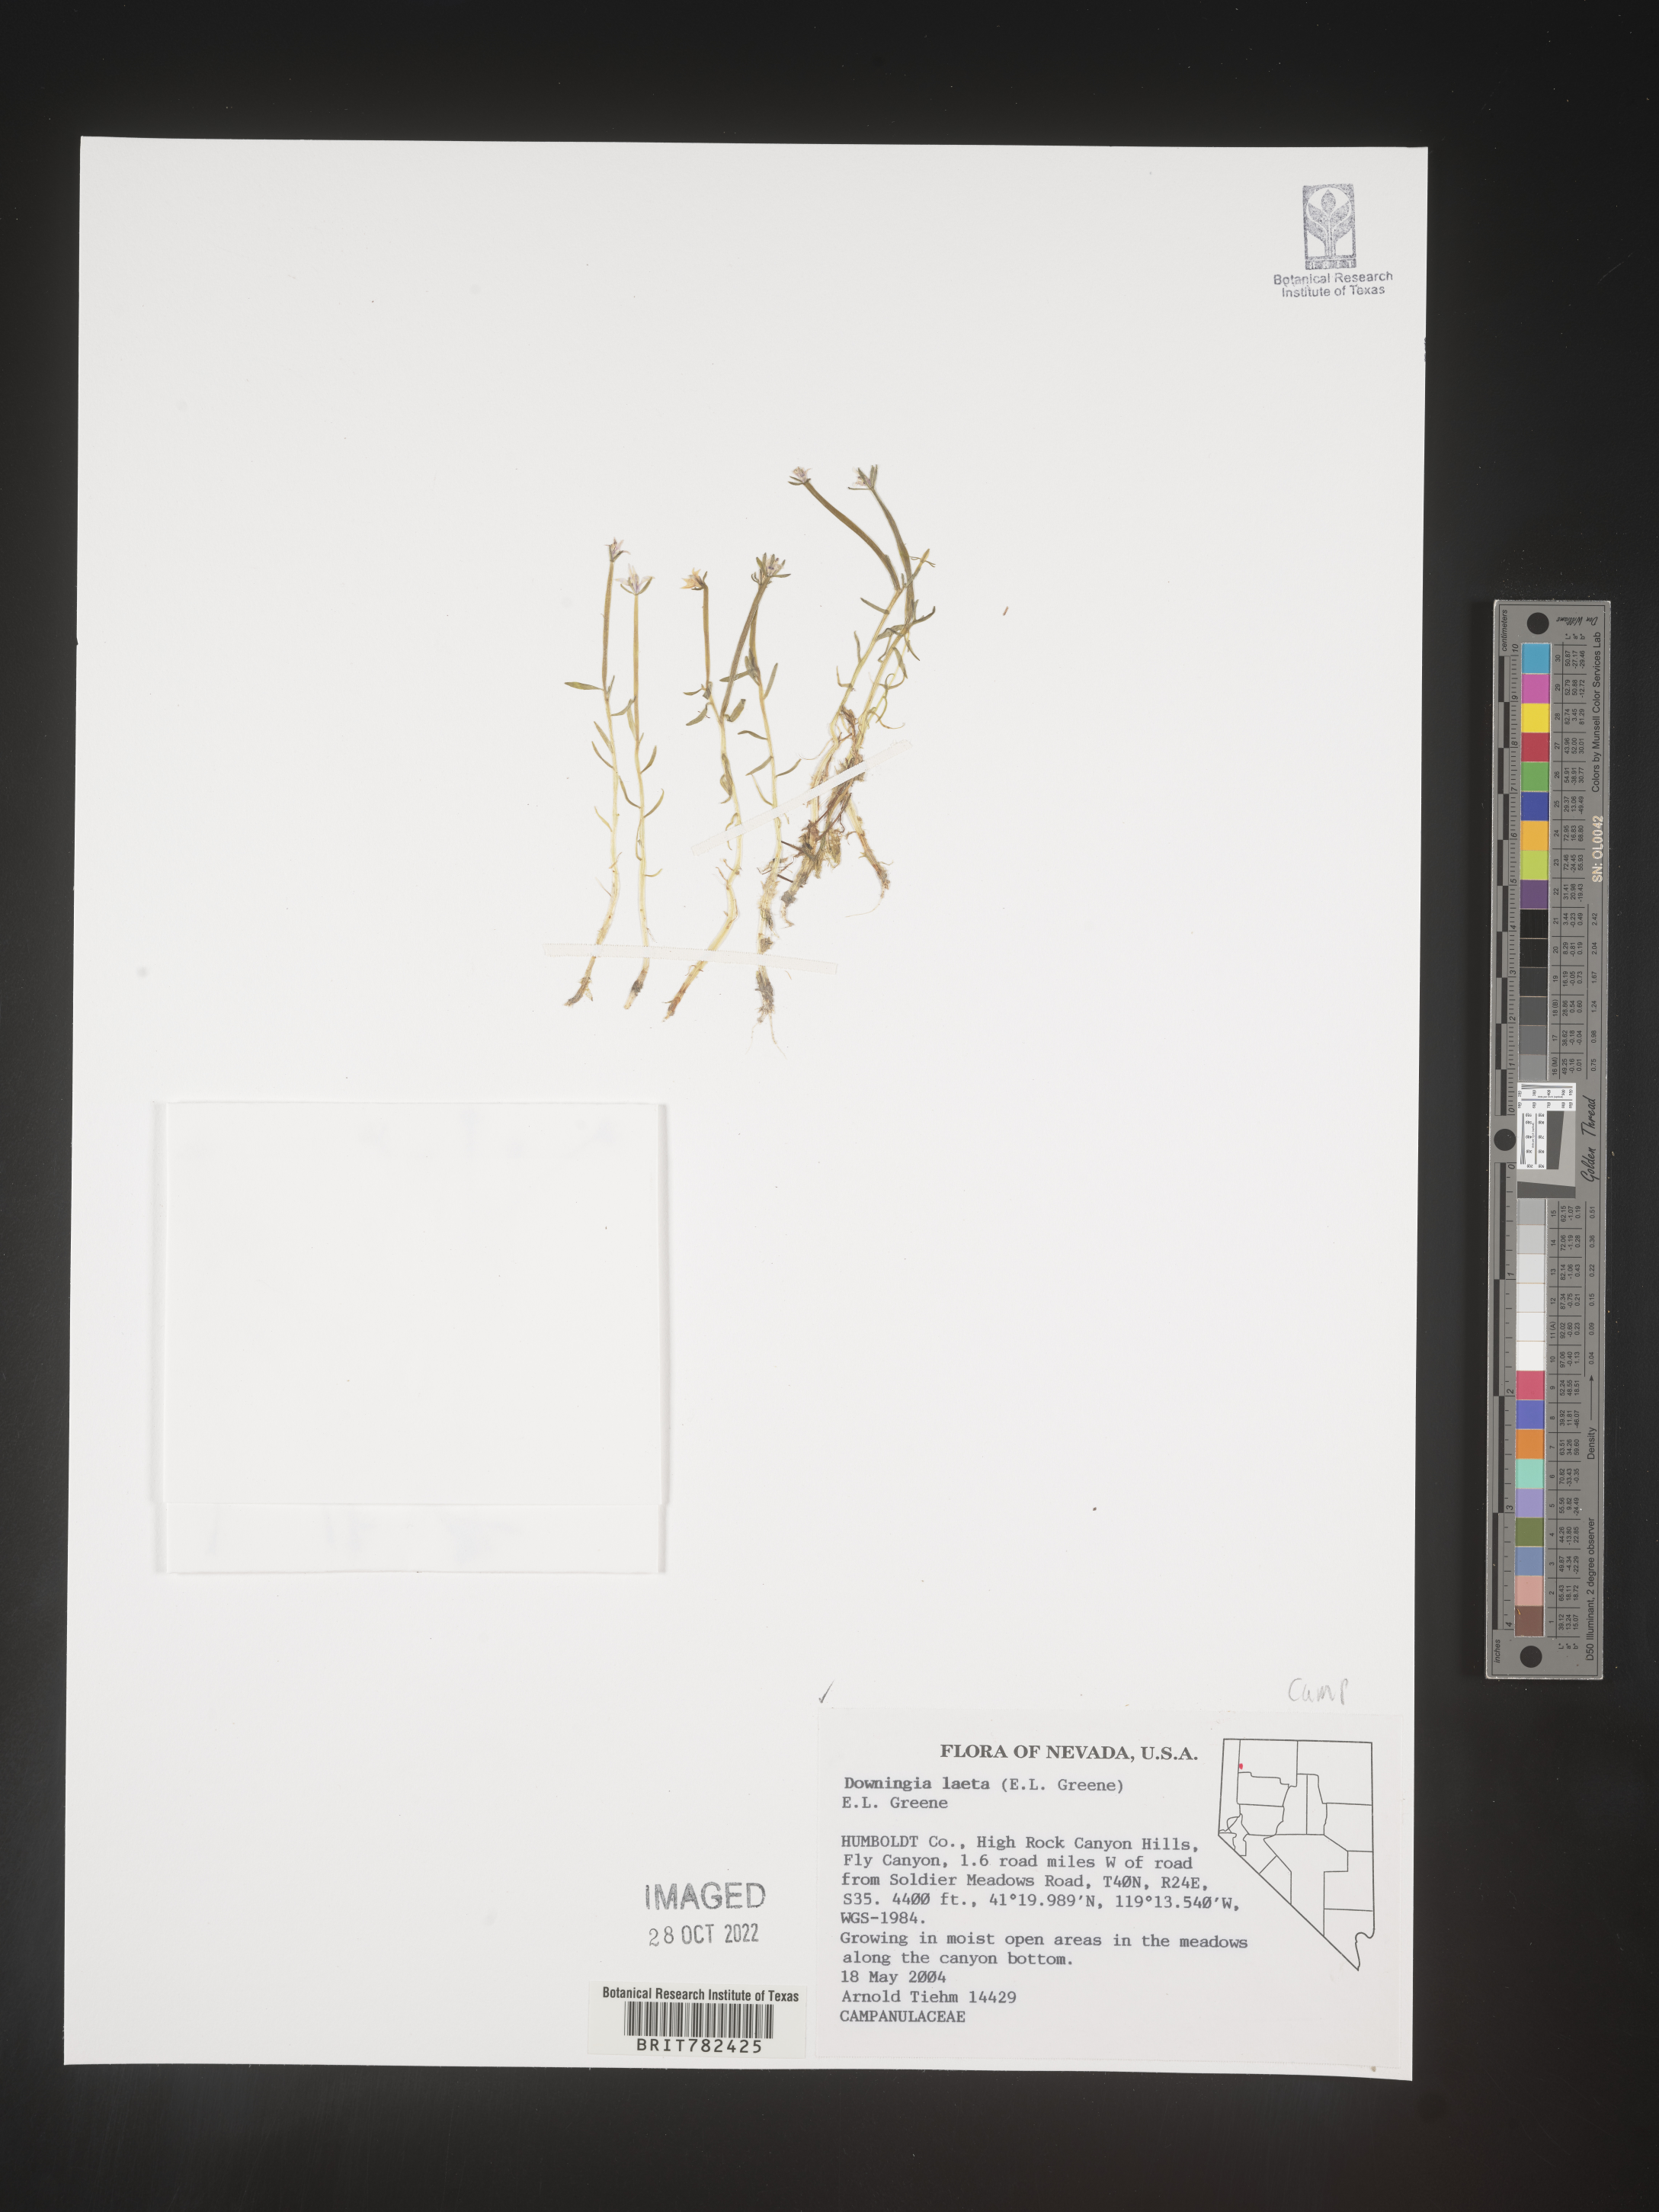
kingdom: Plantae
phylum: Tracheophyta
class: Magnoliopsida
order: Asterales
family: Campanulaceae
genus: Downingia
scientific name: Downingia
